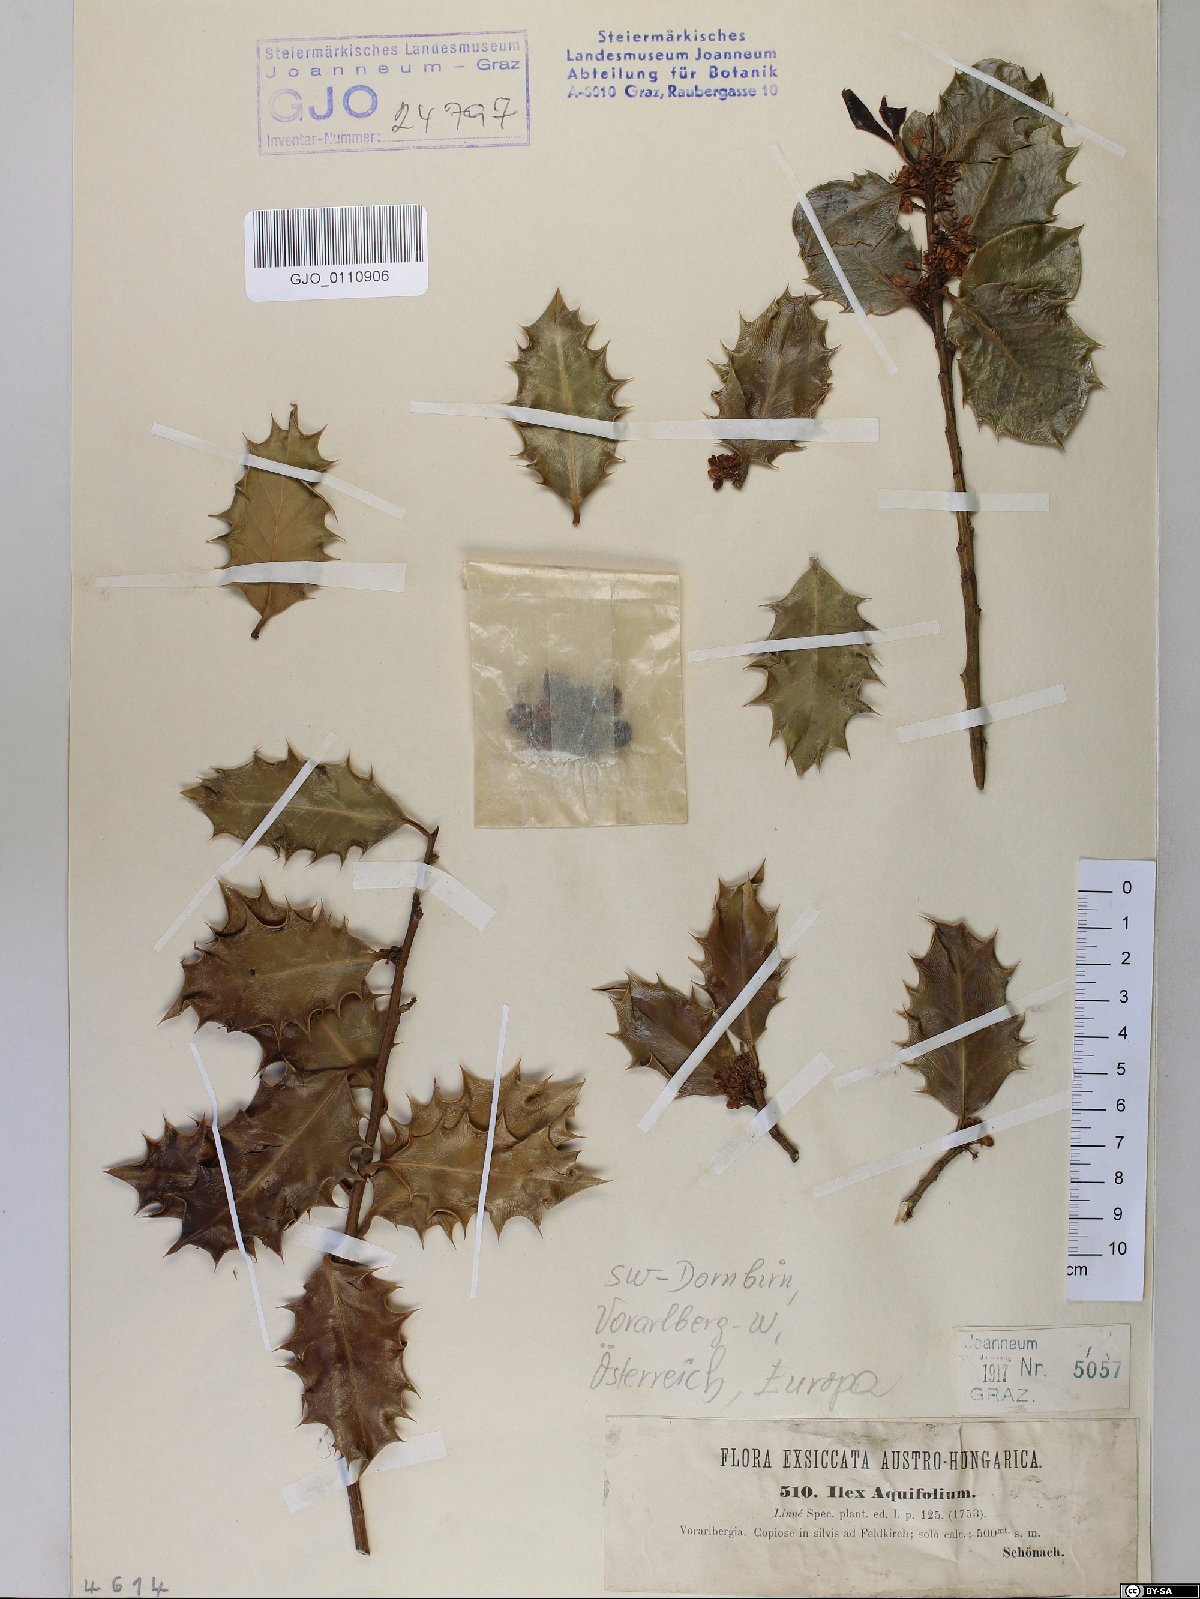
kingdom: Plantae
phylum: Tracheophyta
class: Magnoliopsida
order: Aquifoliales
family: Aquifoliaceae
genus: Ilex
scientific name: Ilex aquifolium
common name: English holly
